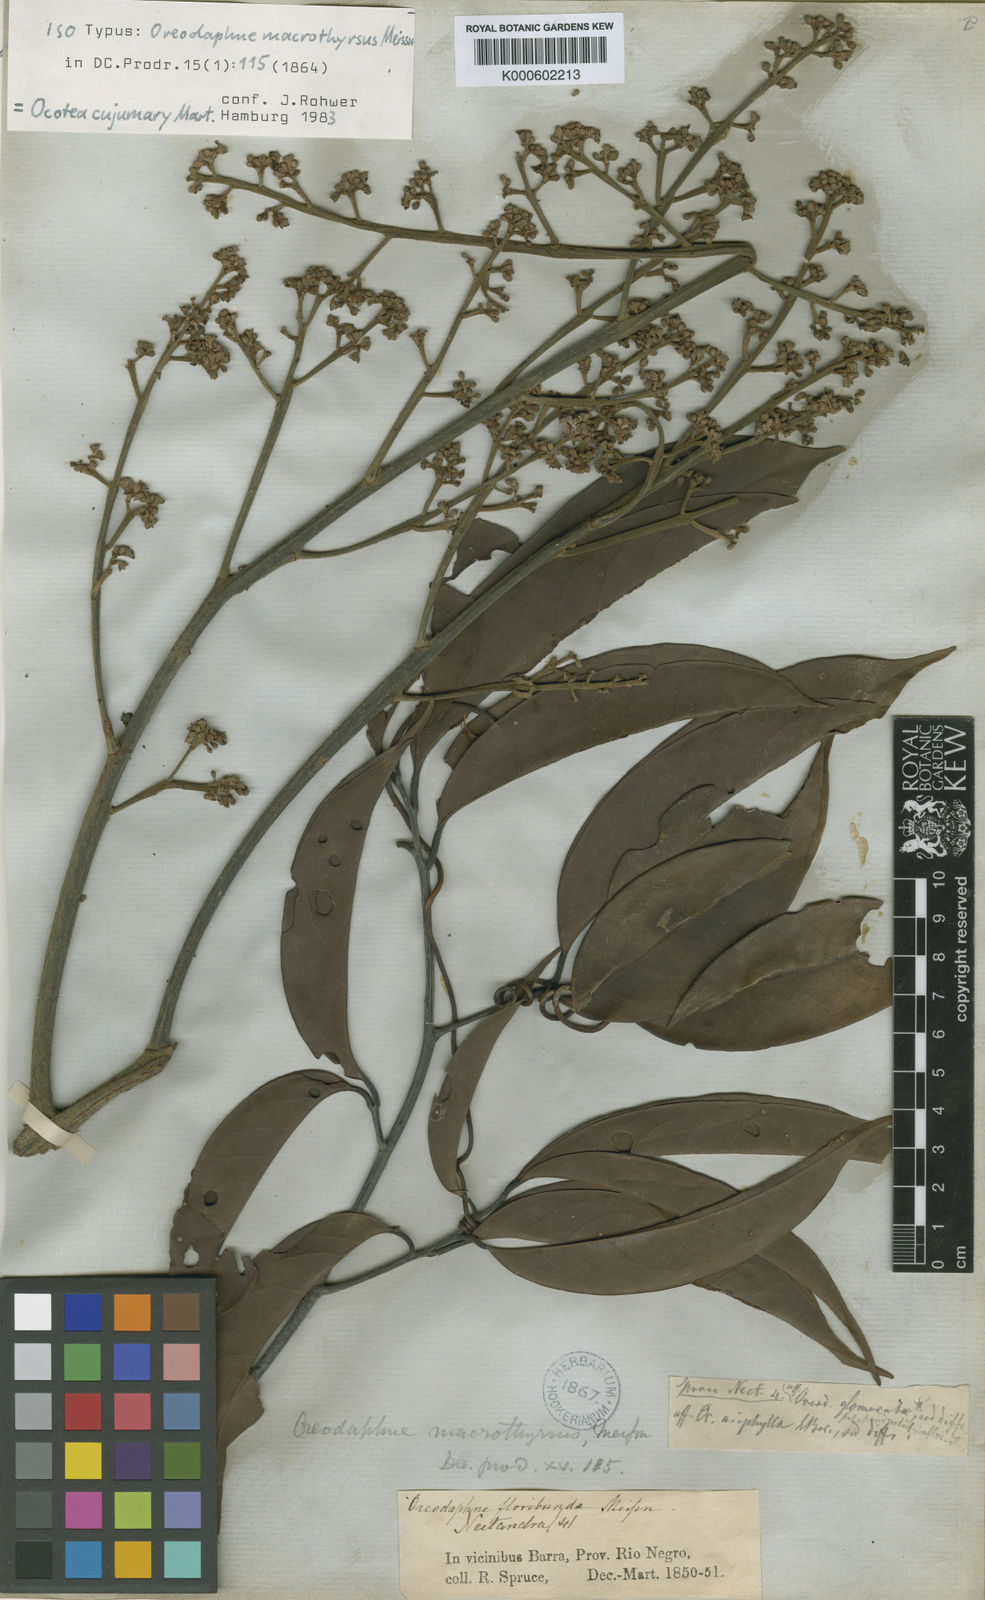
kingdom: Plantae
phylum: Tracheophyta
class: Magnoliopsida
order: Laurales
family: Lauraceae
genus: Ocotea
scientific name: Ocotea cujumary
